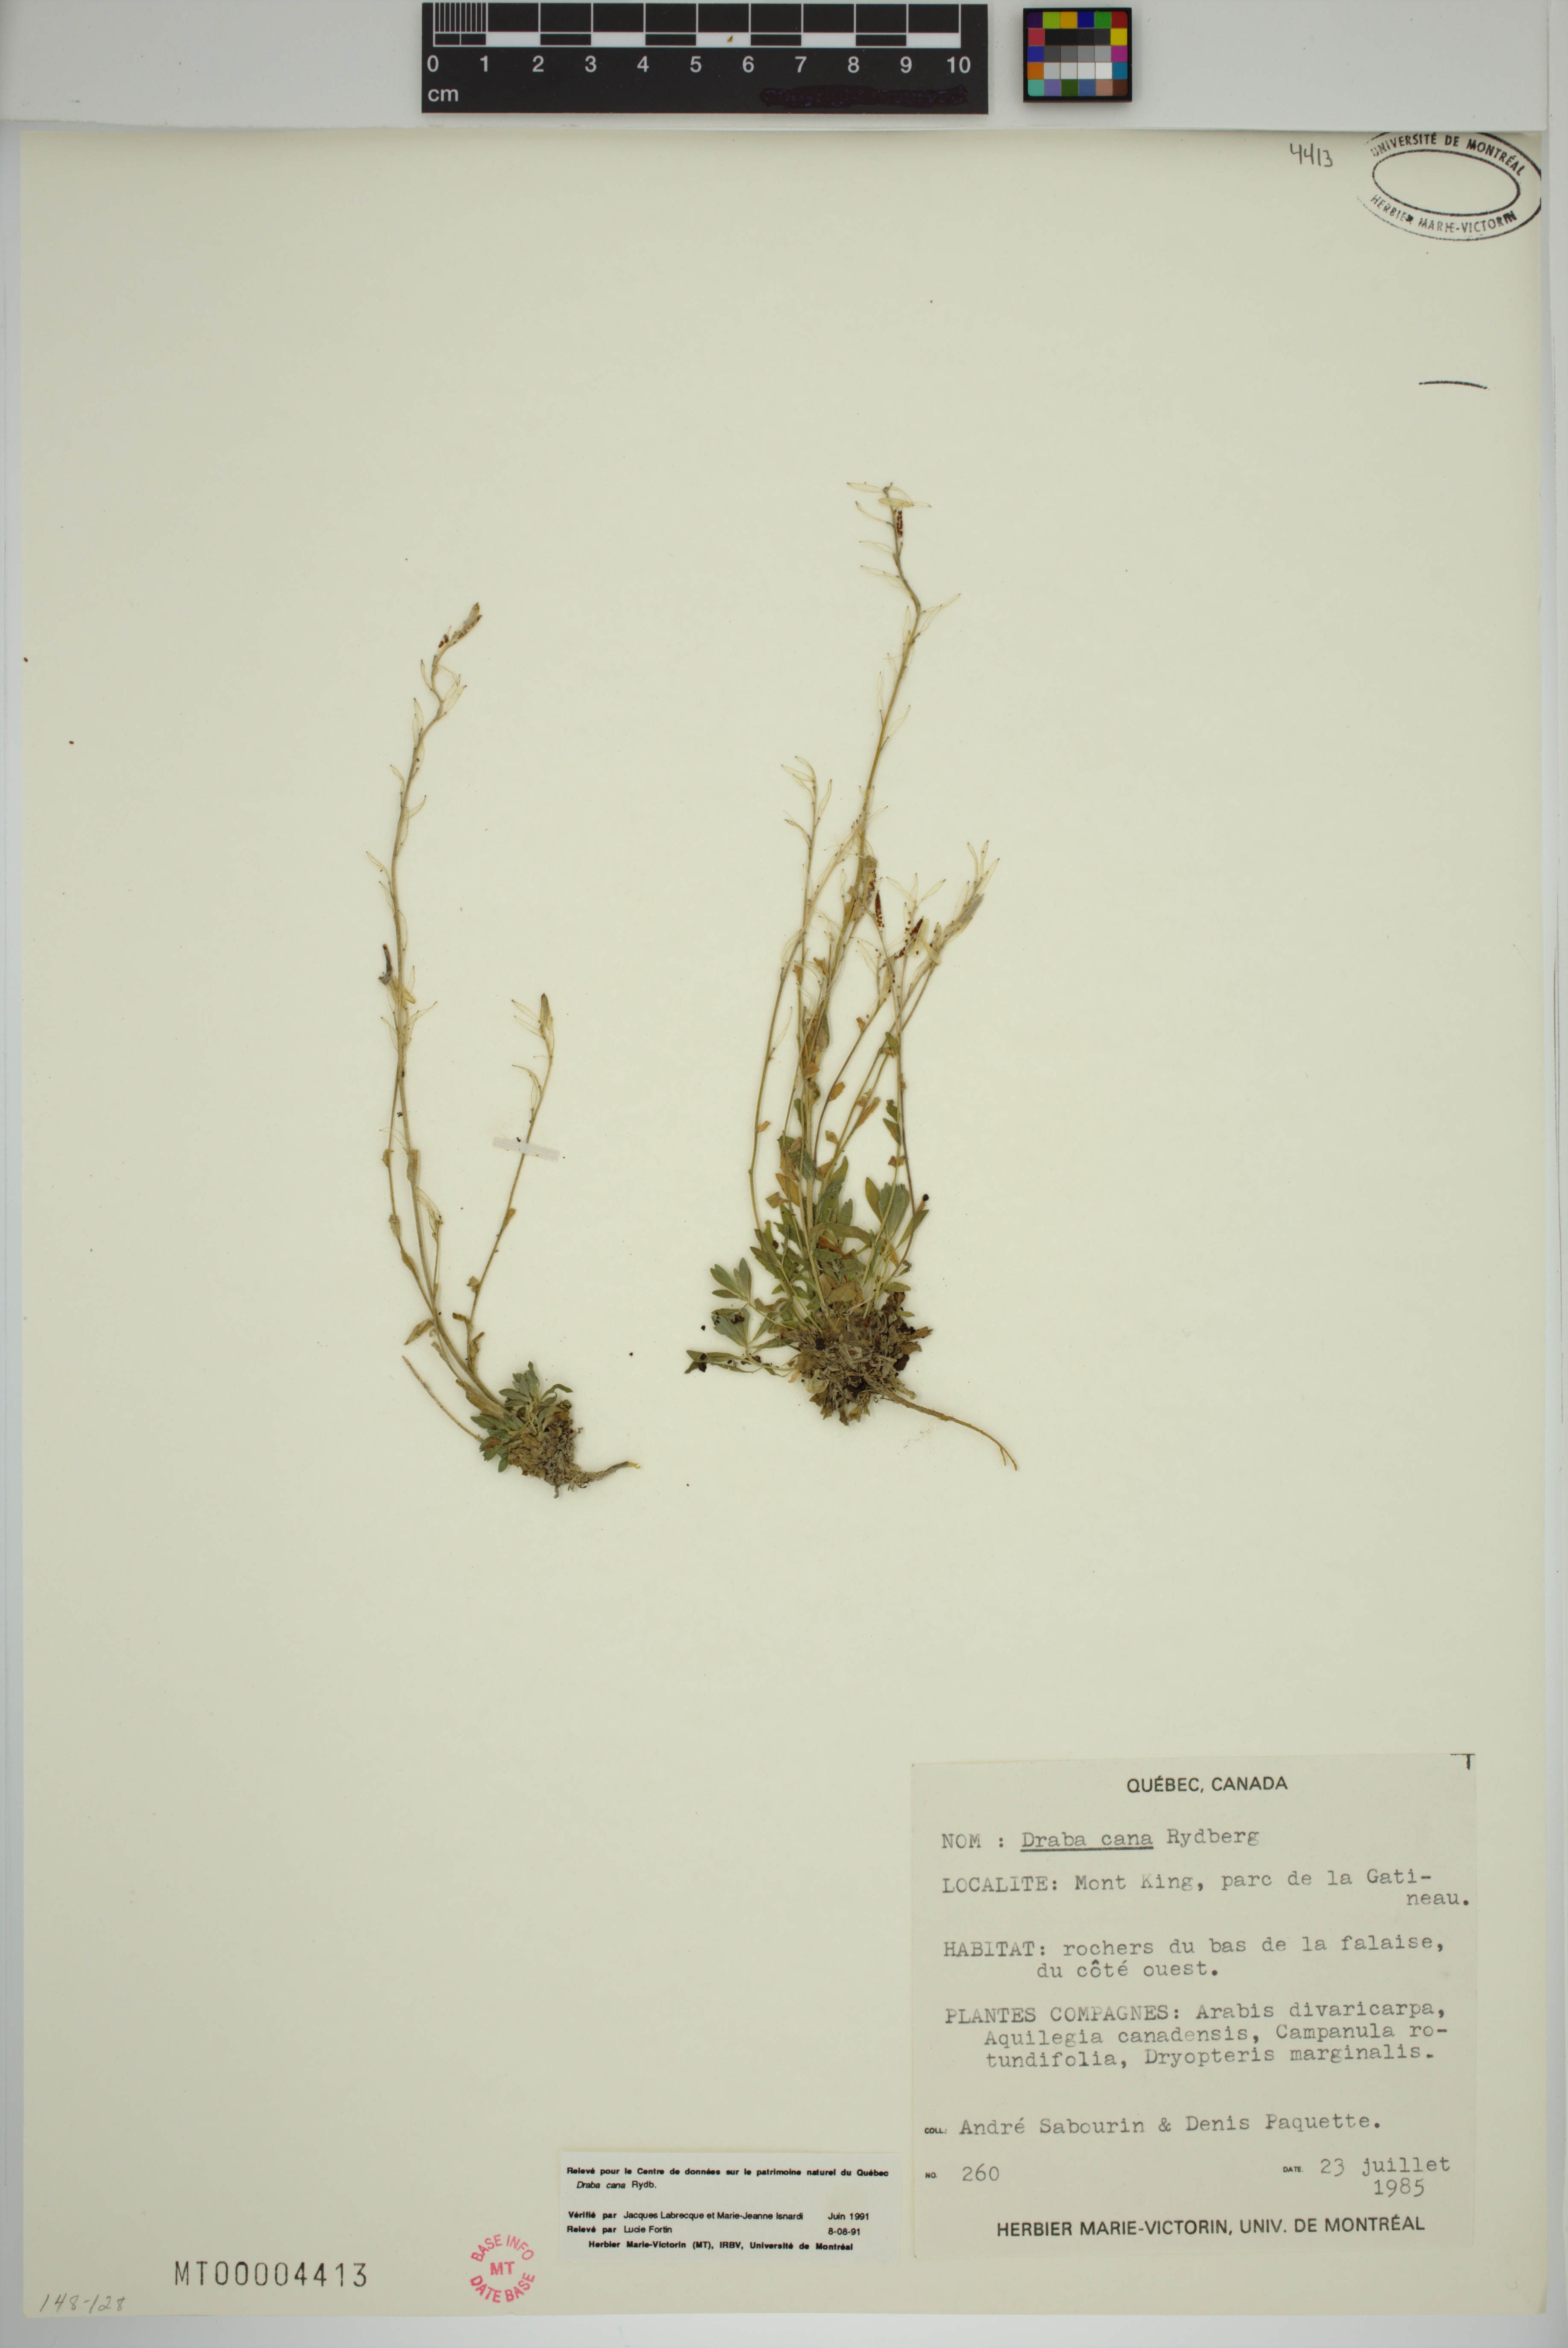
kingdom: Plantae
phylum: Tracheophyta
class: Magnoliopsida
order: Brassicales
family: Brassicaceae
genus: Draba
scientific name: Draba cana
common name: Hoary draba
